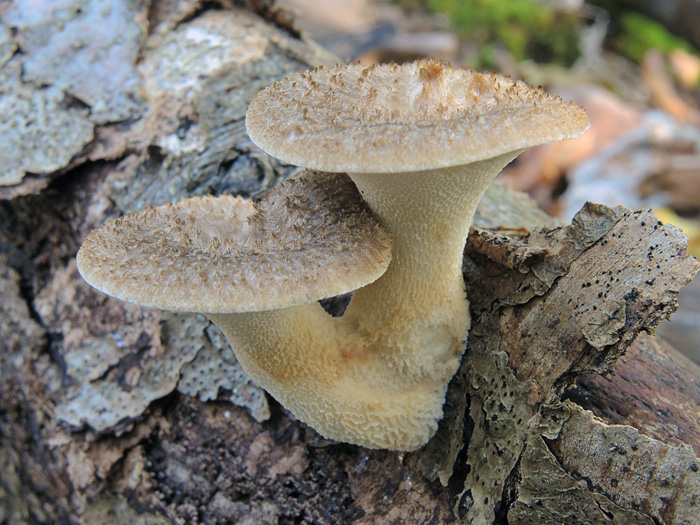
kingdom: Fungi
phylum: Basidiomycota
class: Agaricomycetes
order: Polyporales
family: Polyporaceae
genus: Polyporus
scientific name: Polyporus tuberaster
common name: knoldet stilkporesvamp
